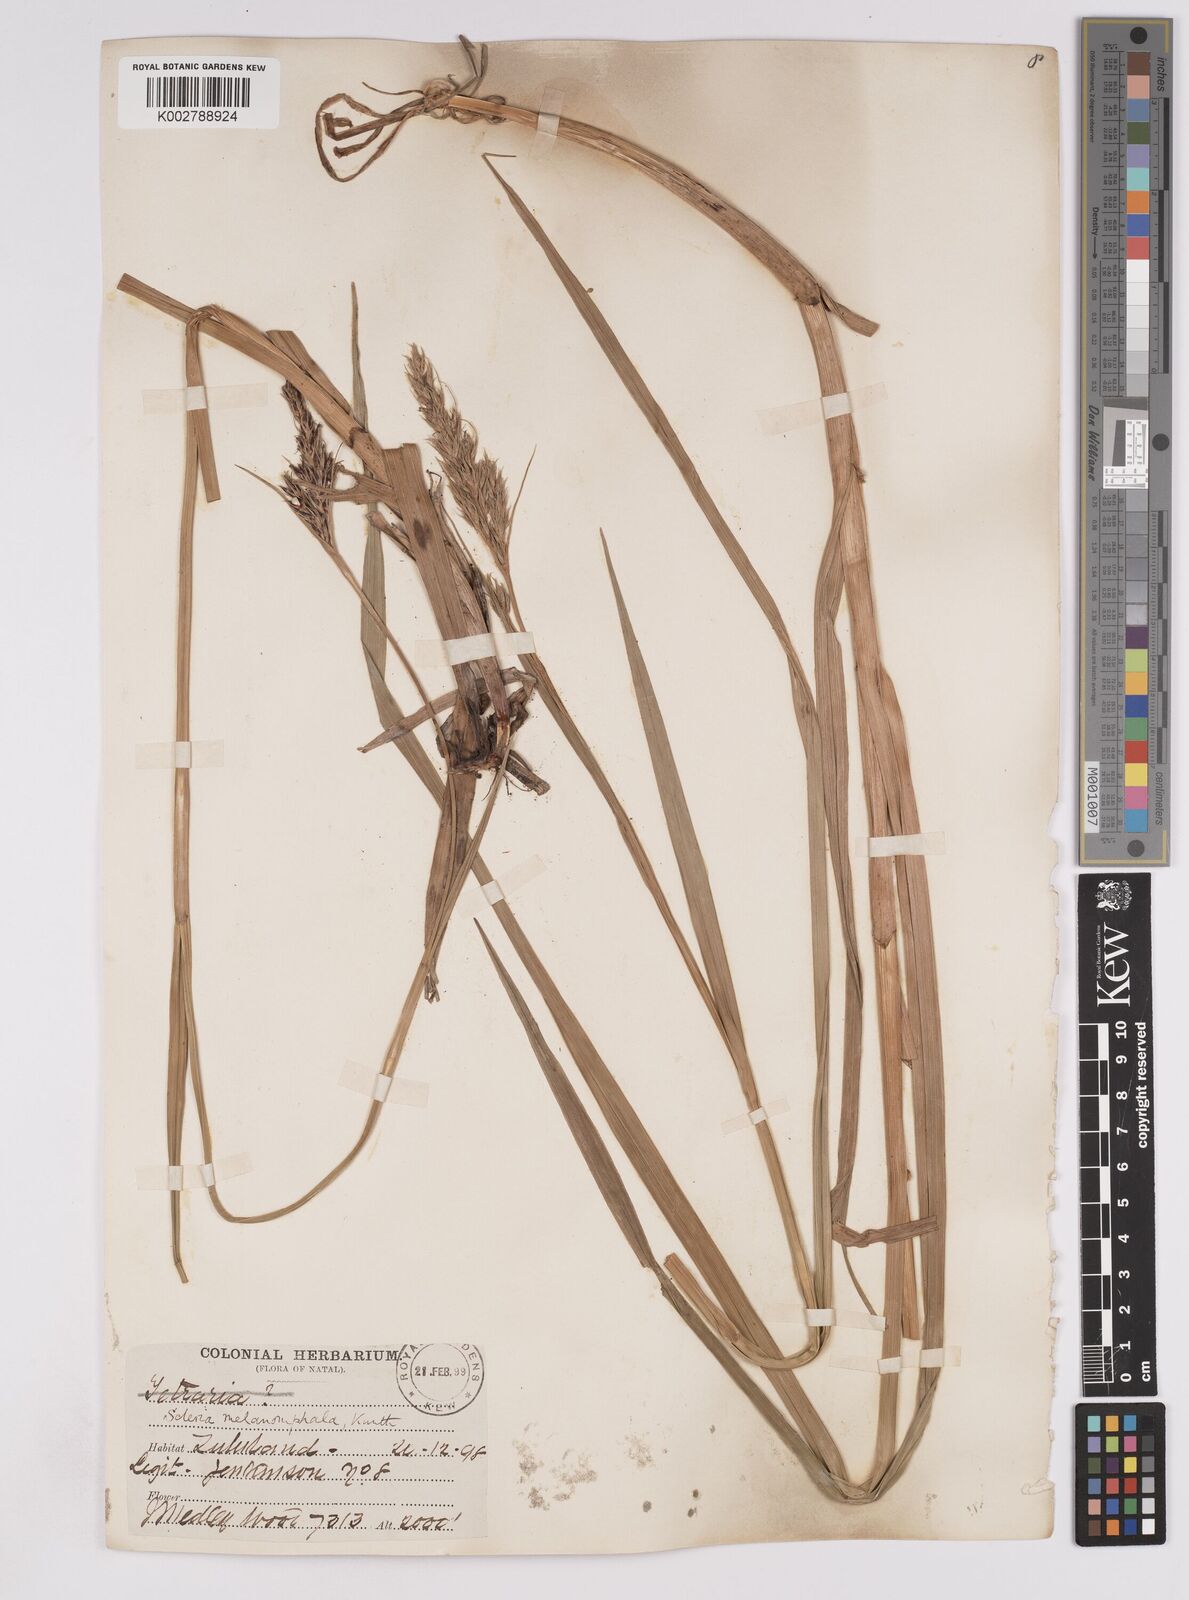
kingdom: Plantae
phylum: Tracheophyta
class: Liliopsida
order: Poales
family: Cyperaceae
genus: Scleria
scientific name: Scleria melanomphala
